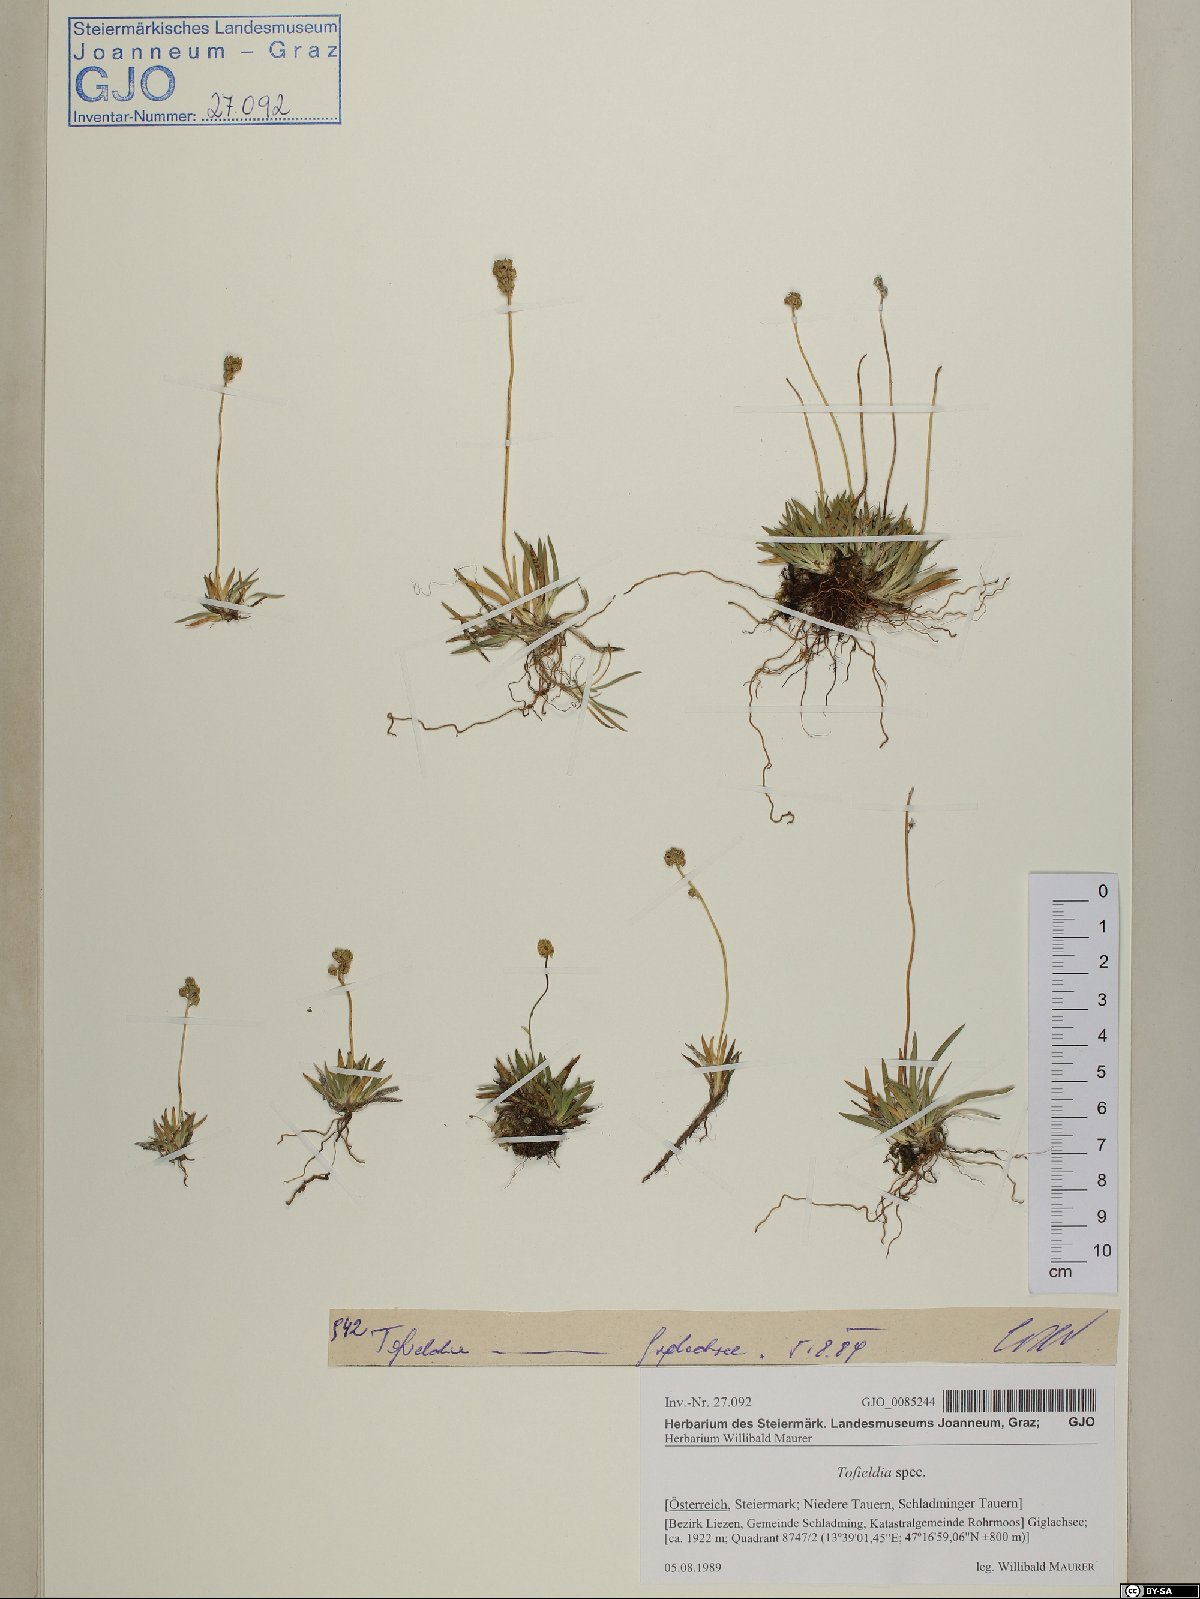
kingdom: Plantae
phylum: Tracheophyta
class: Liliopsida
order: Liliales
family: Melanthiaceae
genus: Tofieldia
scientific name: Tofieldia
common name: Tofieldia
